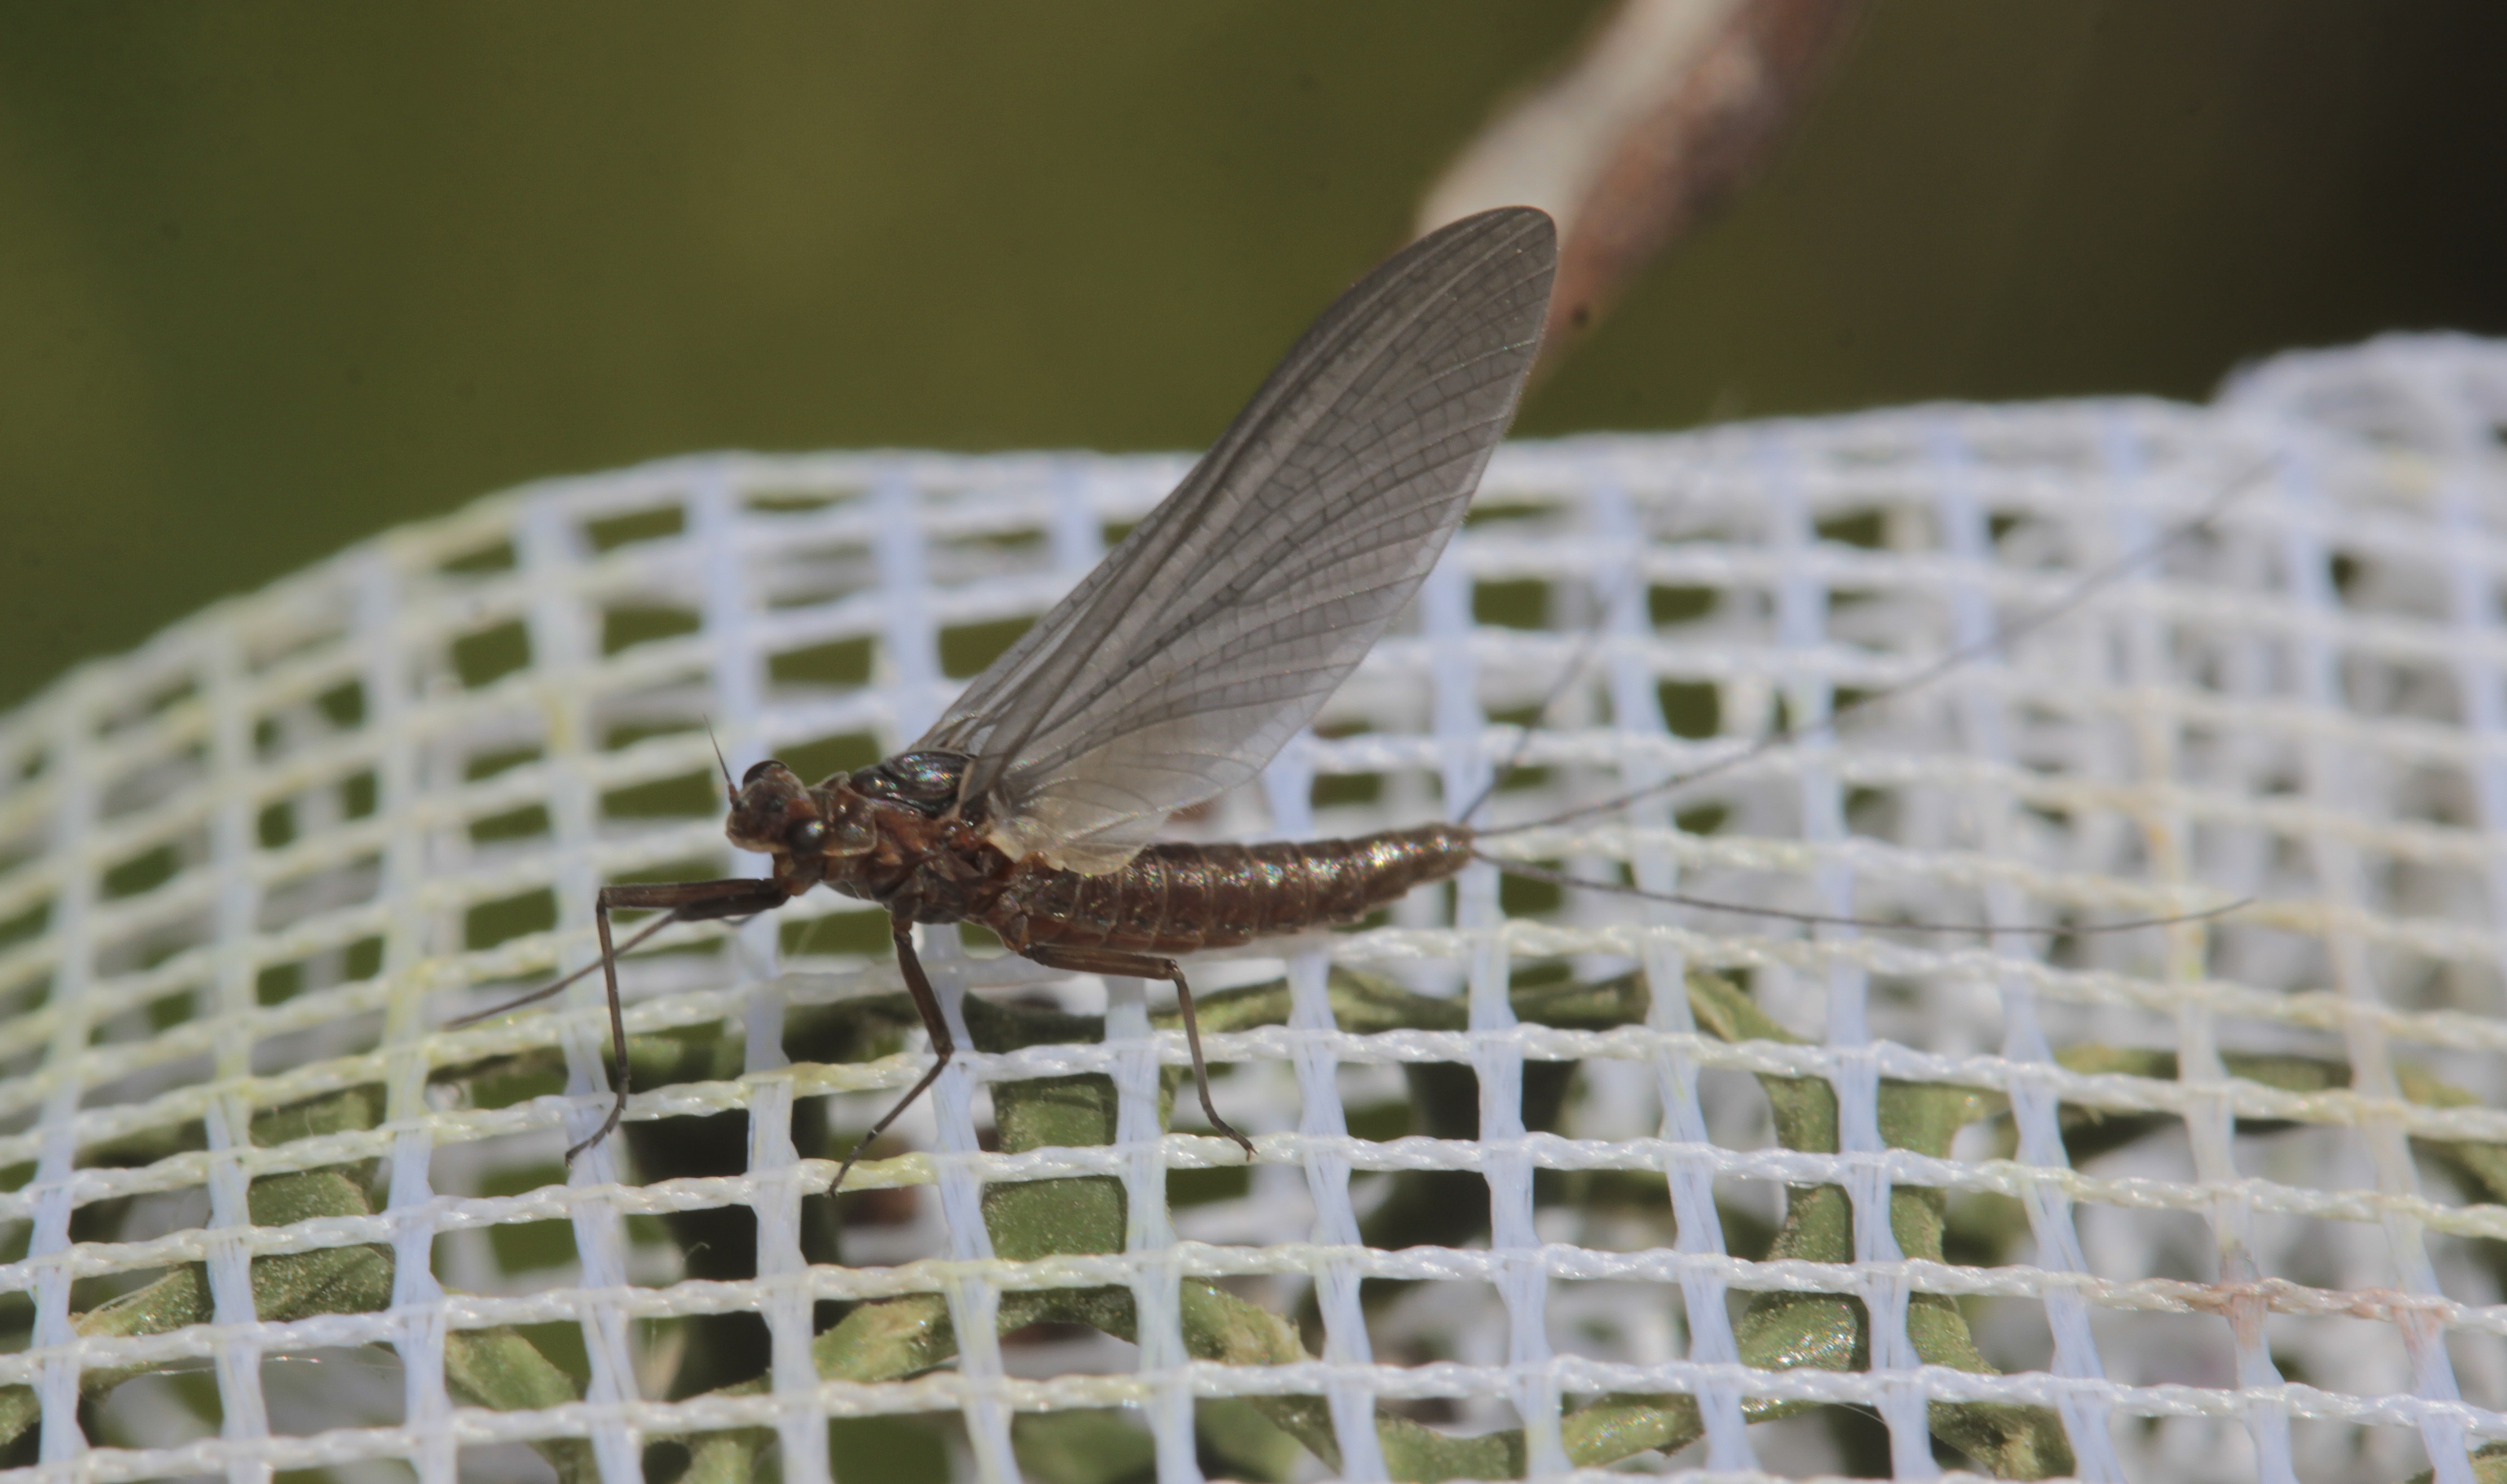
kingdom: Animalia
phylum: Arthropoda
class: Insecta
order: Ephemeroptera
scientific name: Ephemeroptera
